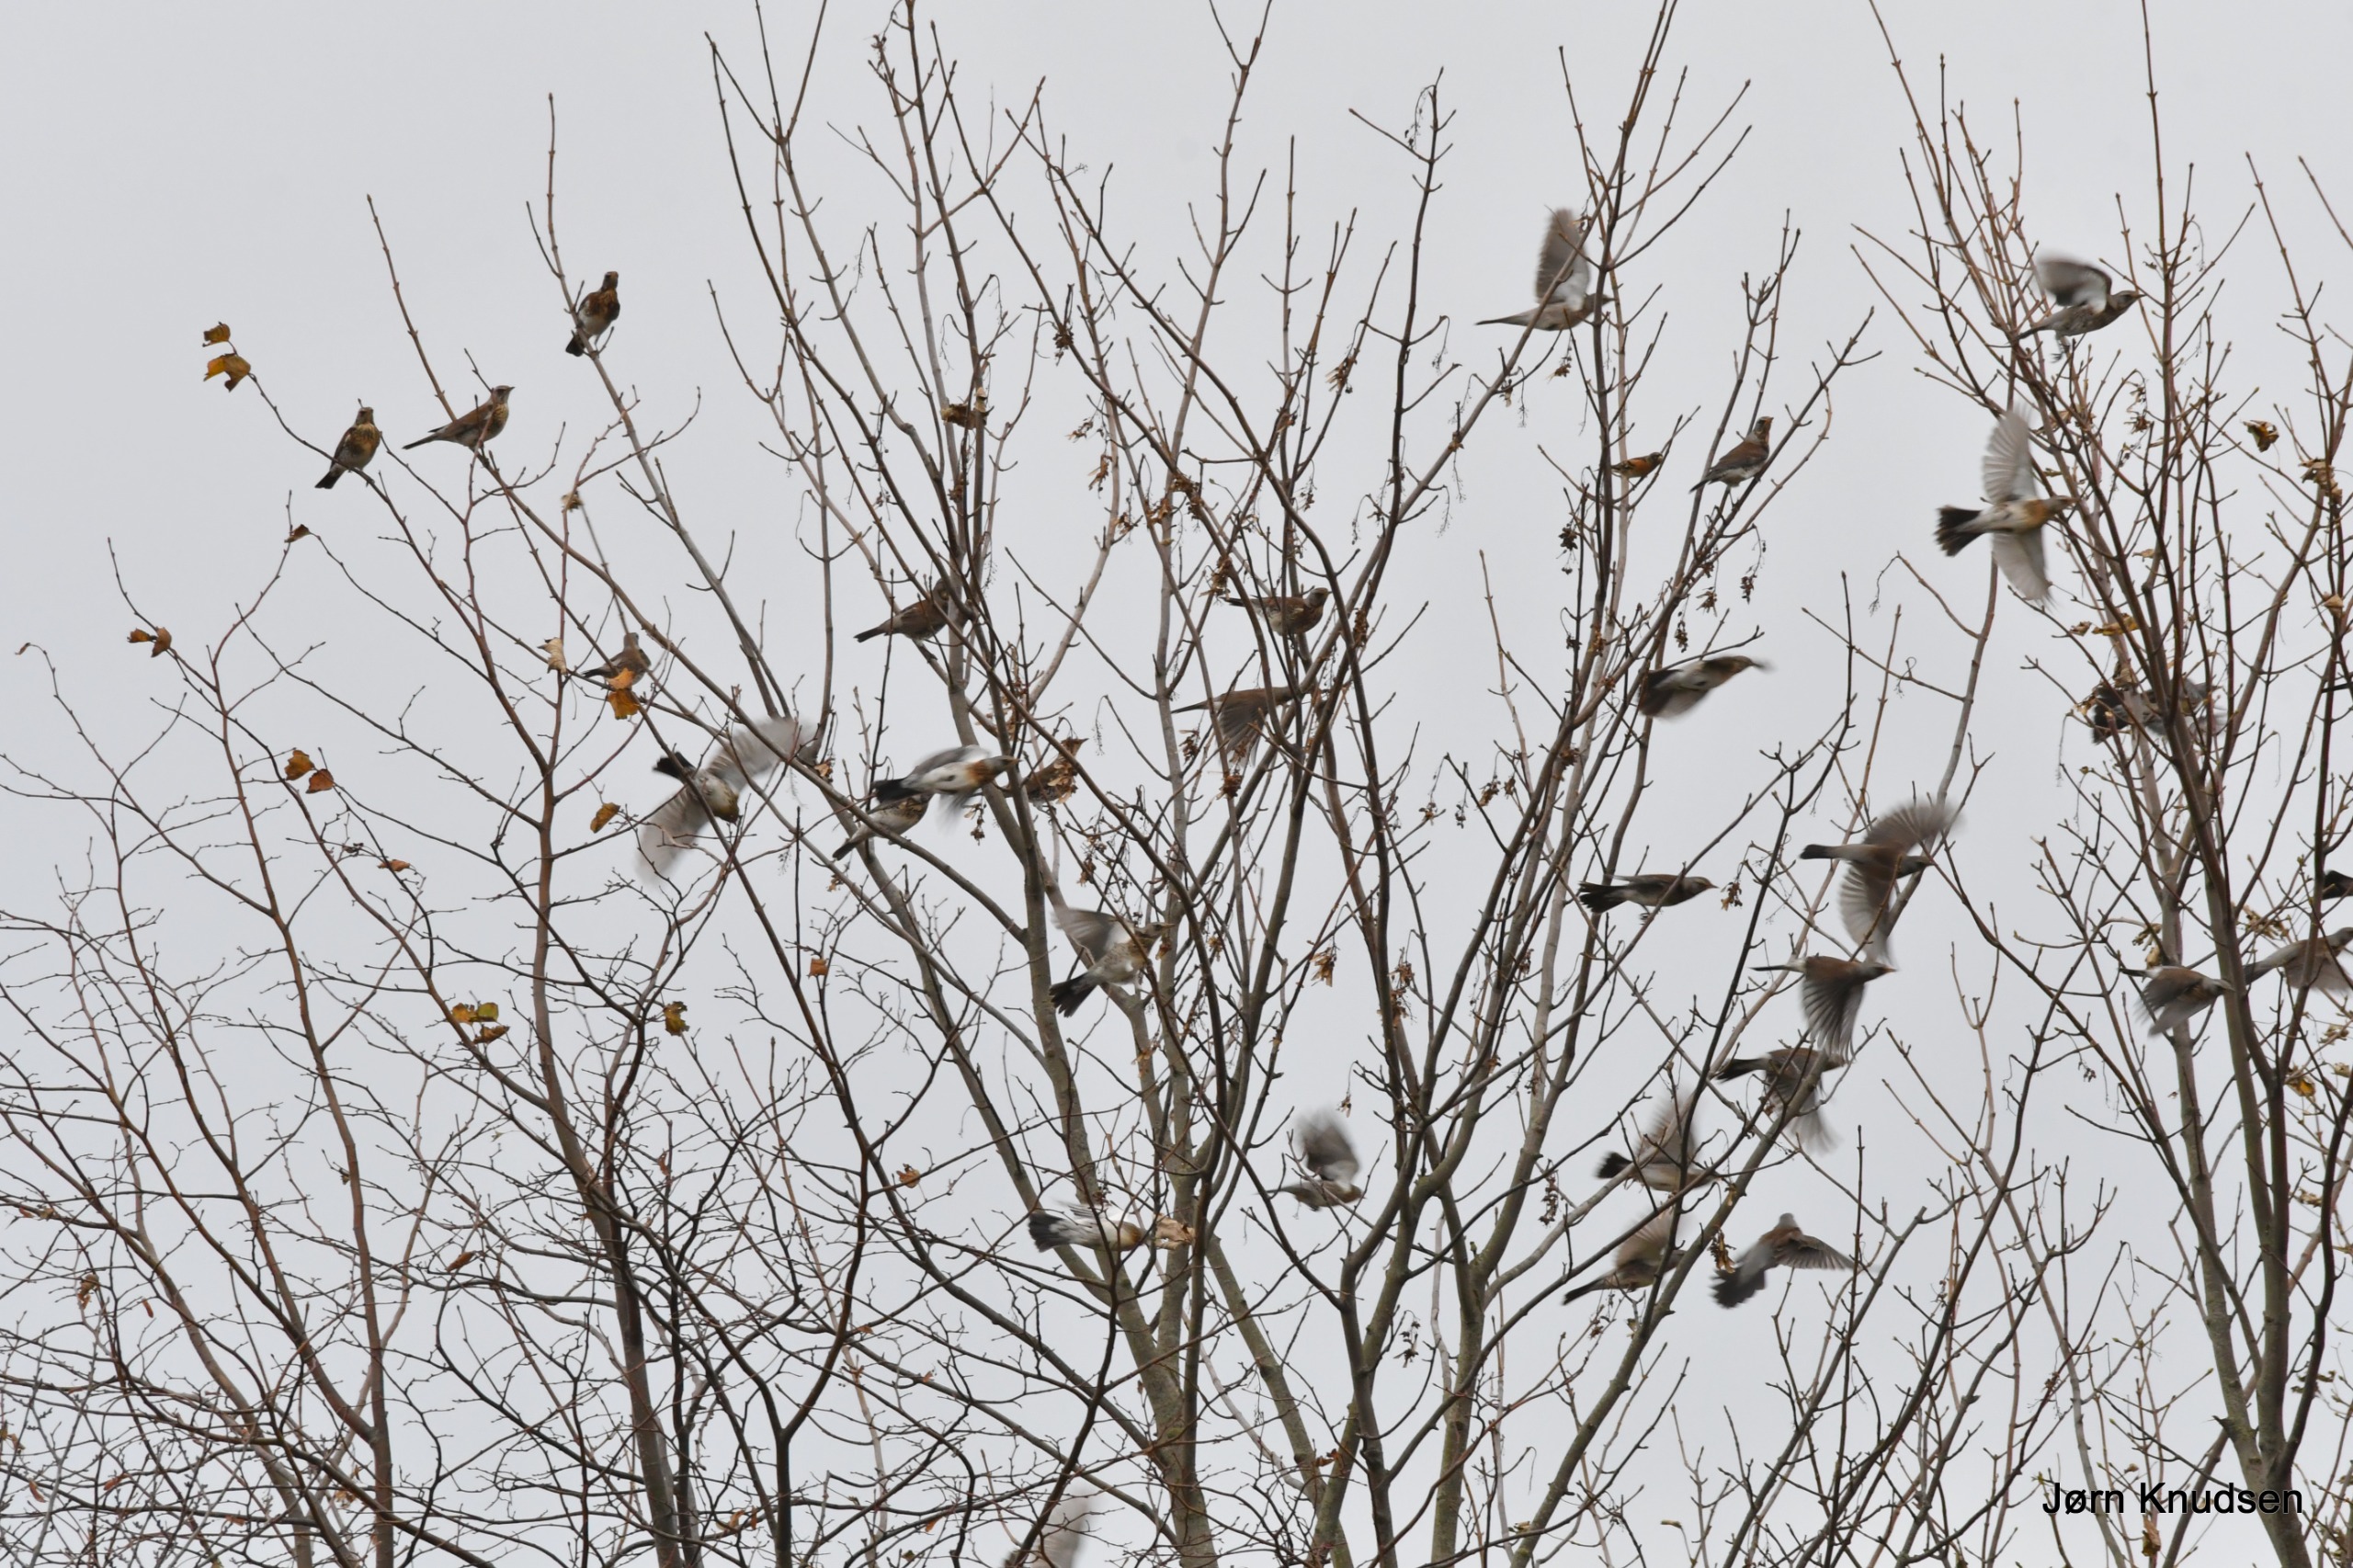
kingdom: Animalia
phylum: Chordata
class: Aves
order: Passeriformes
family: Turdidae
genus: Turdus
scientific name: Turdus pilaris
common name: Sjagger
